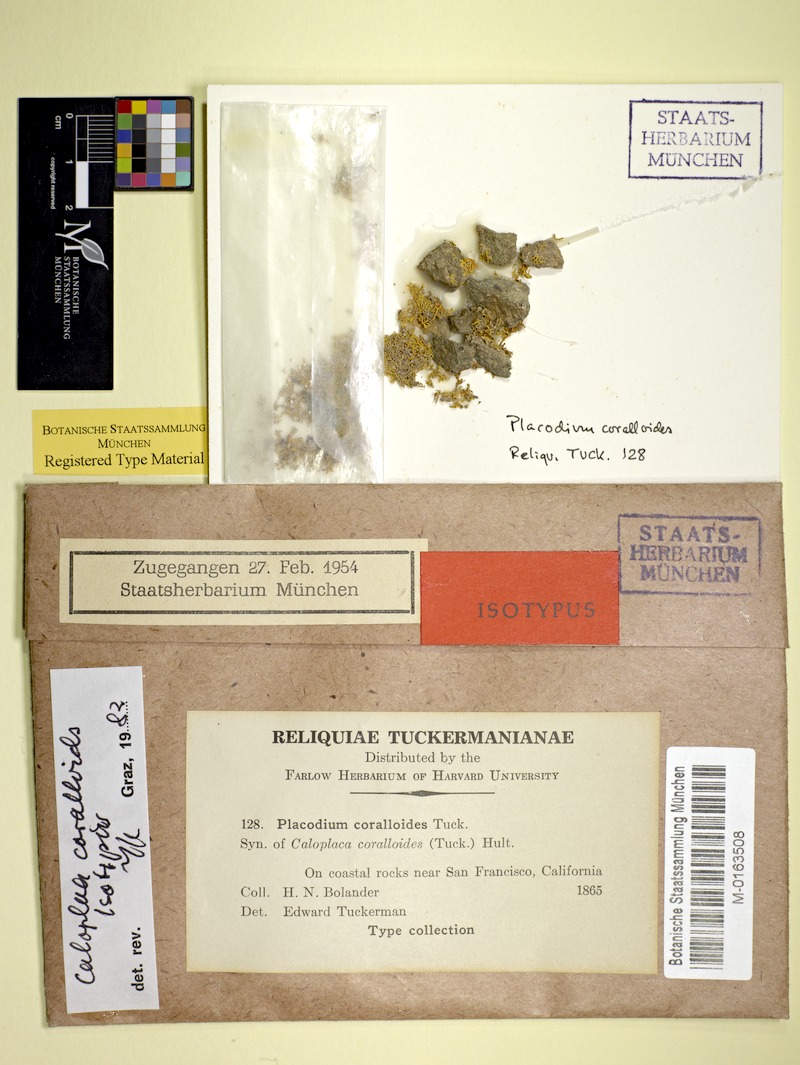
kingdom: Fungi
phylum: Ascomycota
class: Lecanoromycetes
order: Teloschistales
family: Teloschistaceae
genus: Polycauliona
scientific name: Polycauliona coralloides
